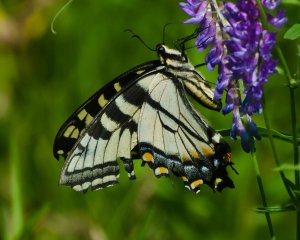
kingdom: Animalia
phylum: Arthropoda
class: Insecta
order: Lepidoptera
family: Papilionidae
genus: Pterourus
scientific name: Pterourus canadensis
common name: Canadian Tiger Swallowtail
